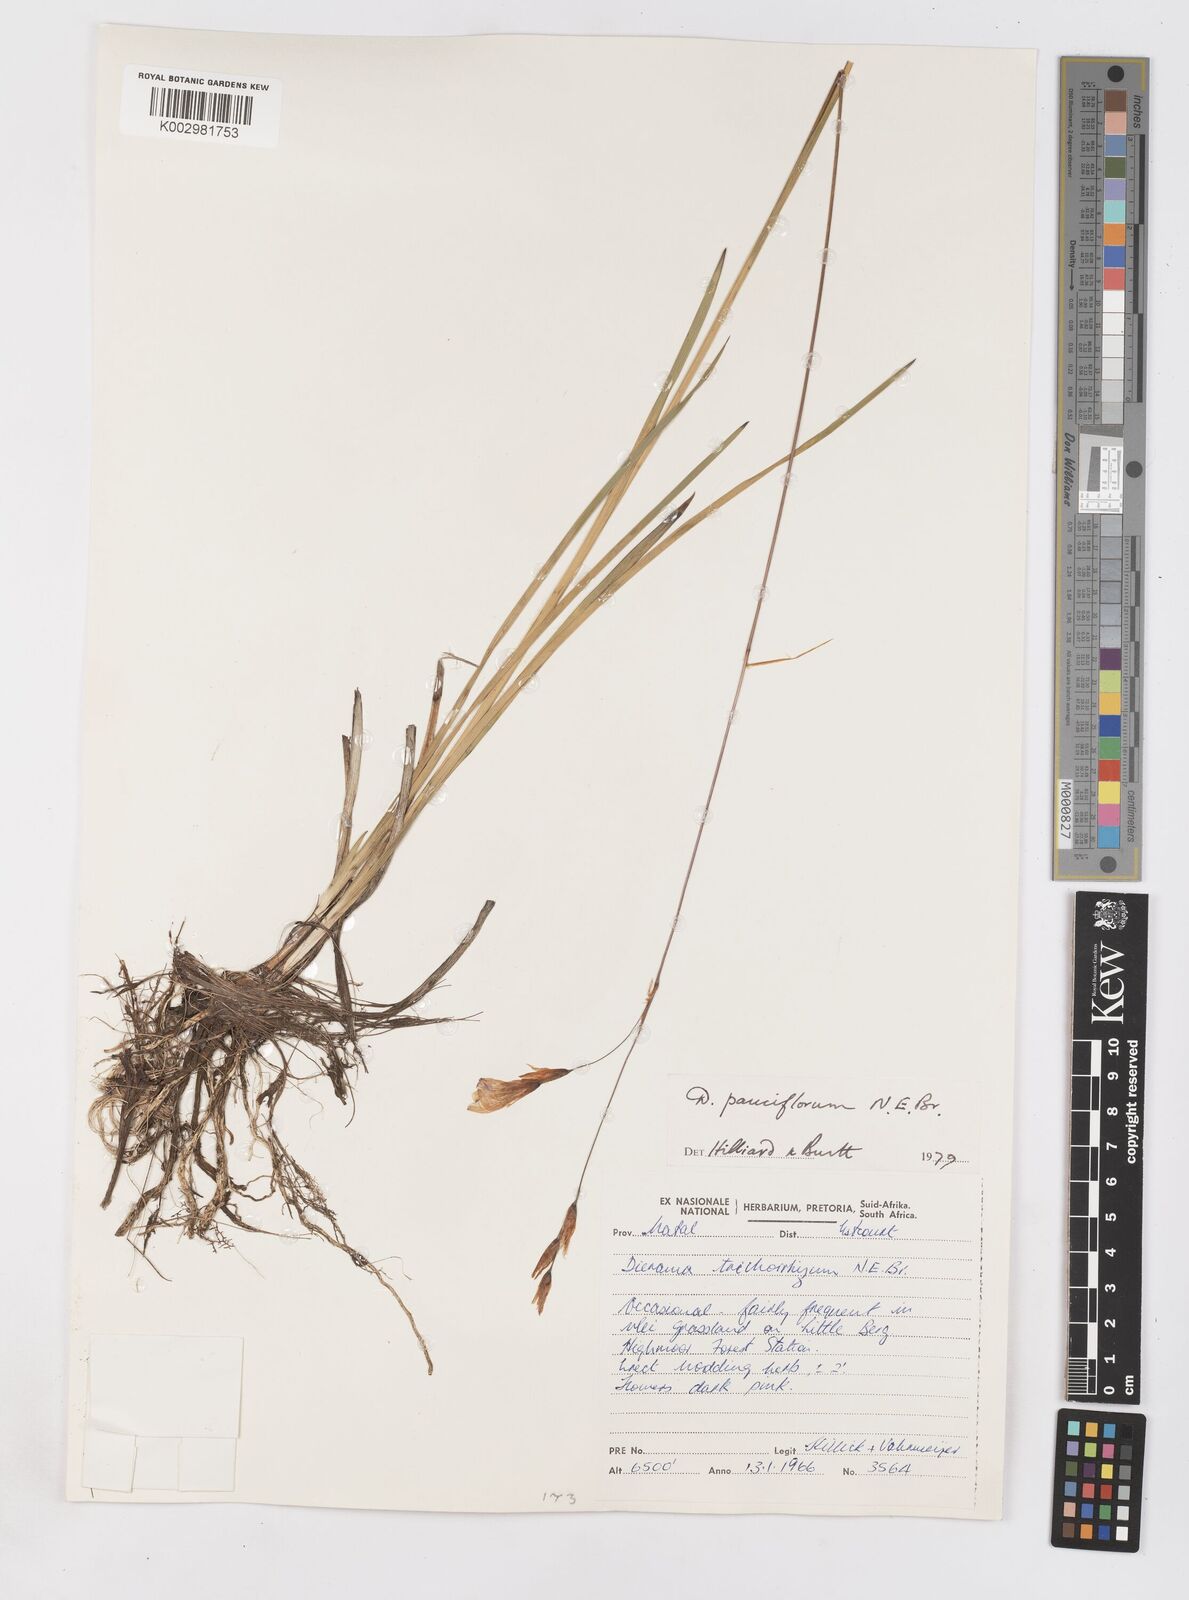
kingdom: Plantae
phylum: Tracheophyta
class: Liliopsida
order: Asparagales
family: Iridaceae
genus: Dierama
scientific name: Dierama pauciflorum
